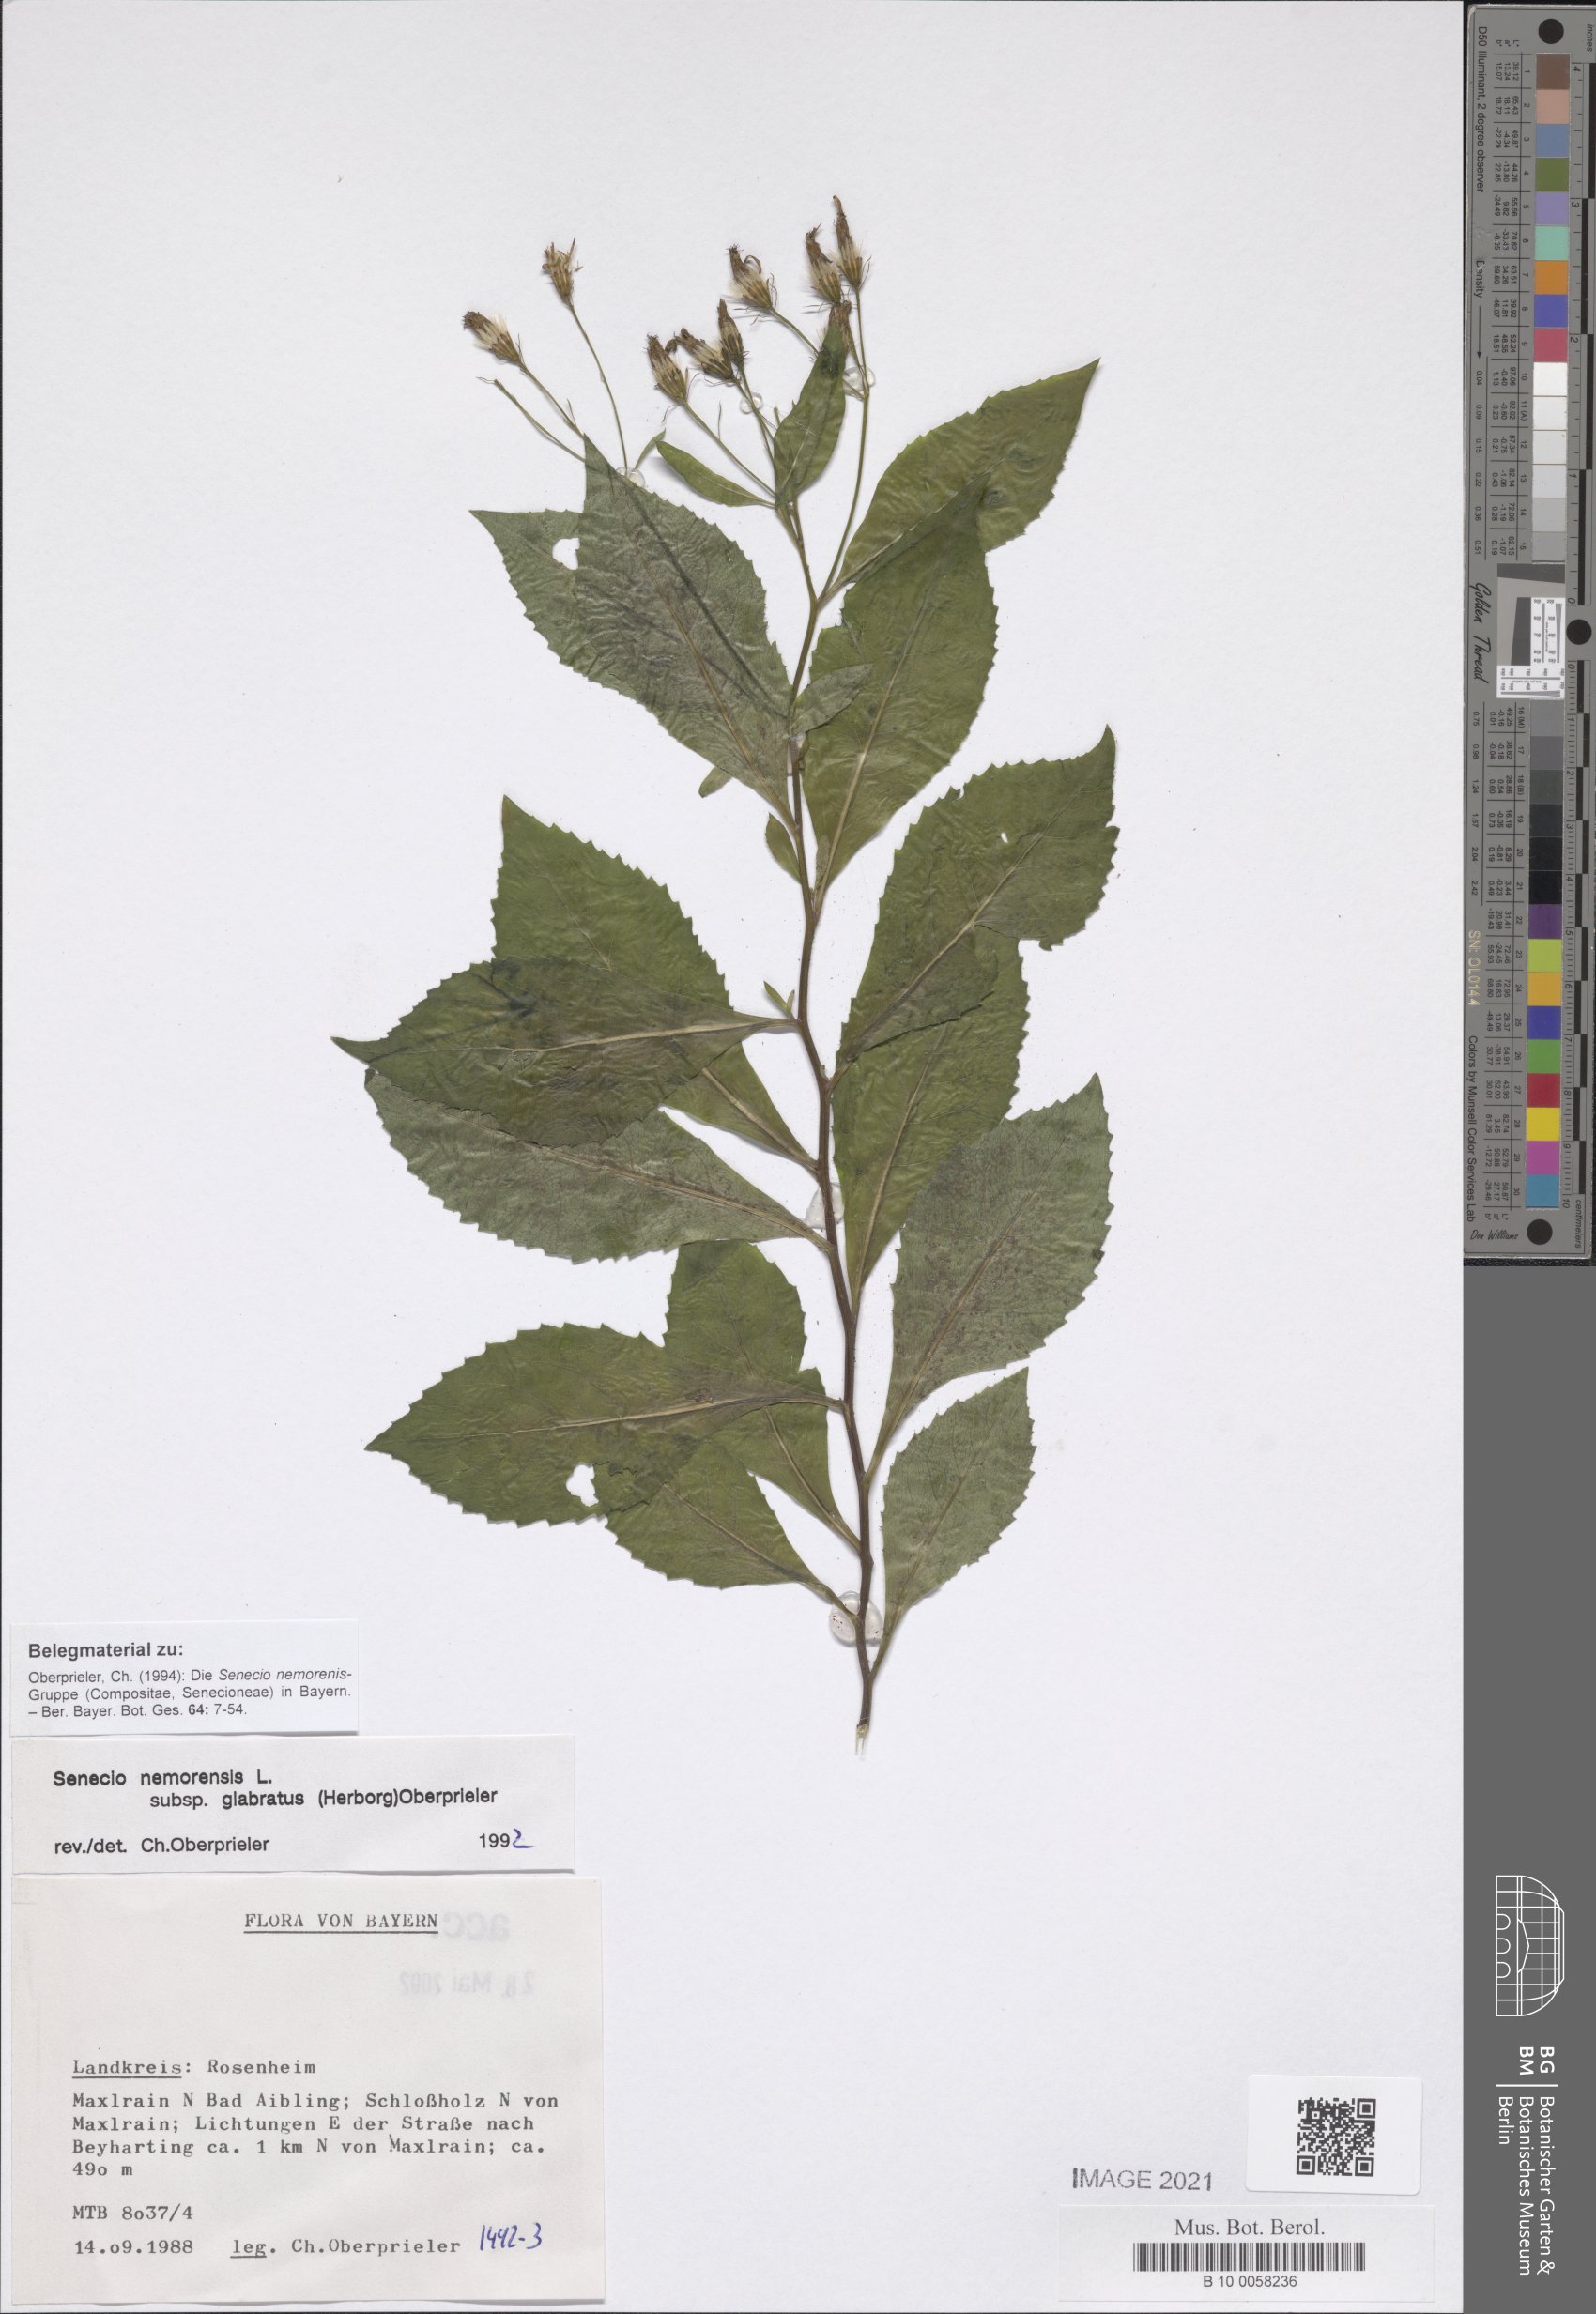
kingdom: Plantae
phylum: Tracheophyta
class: Magnoliopsida
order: Asterales
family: Asteraceae
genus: Senecio
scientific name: Senecio germanicus
